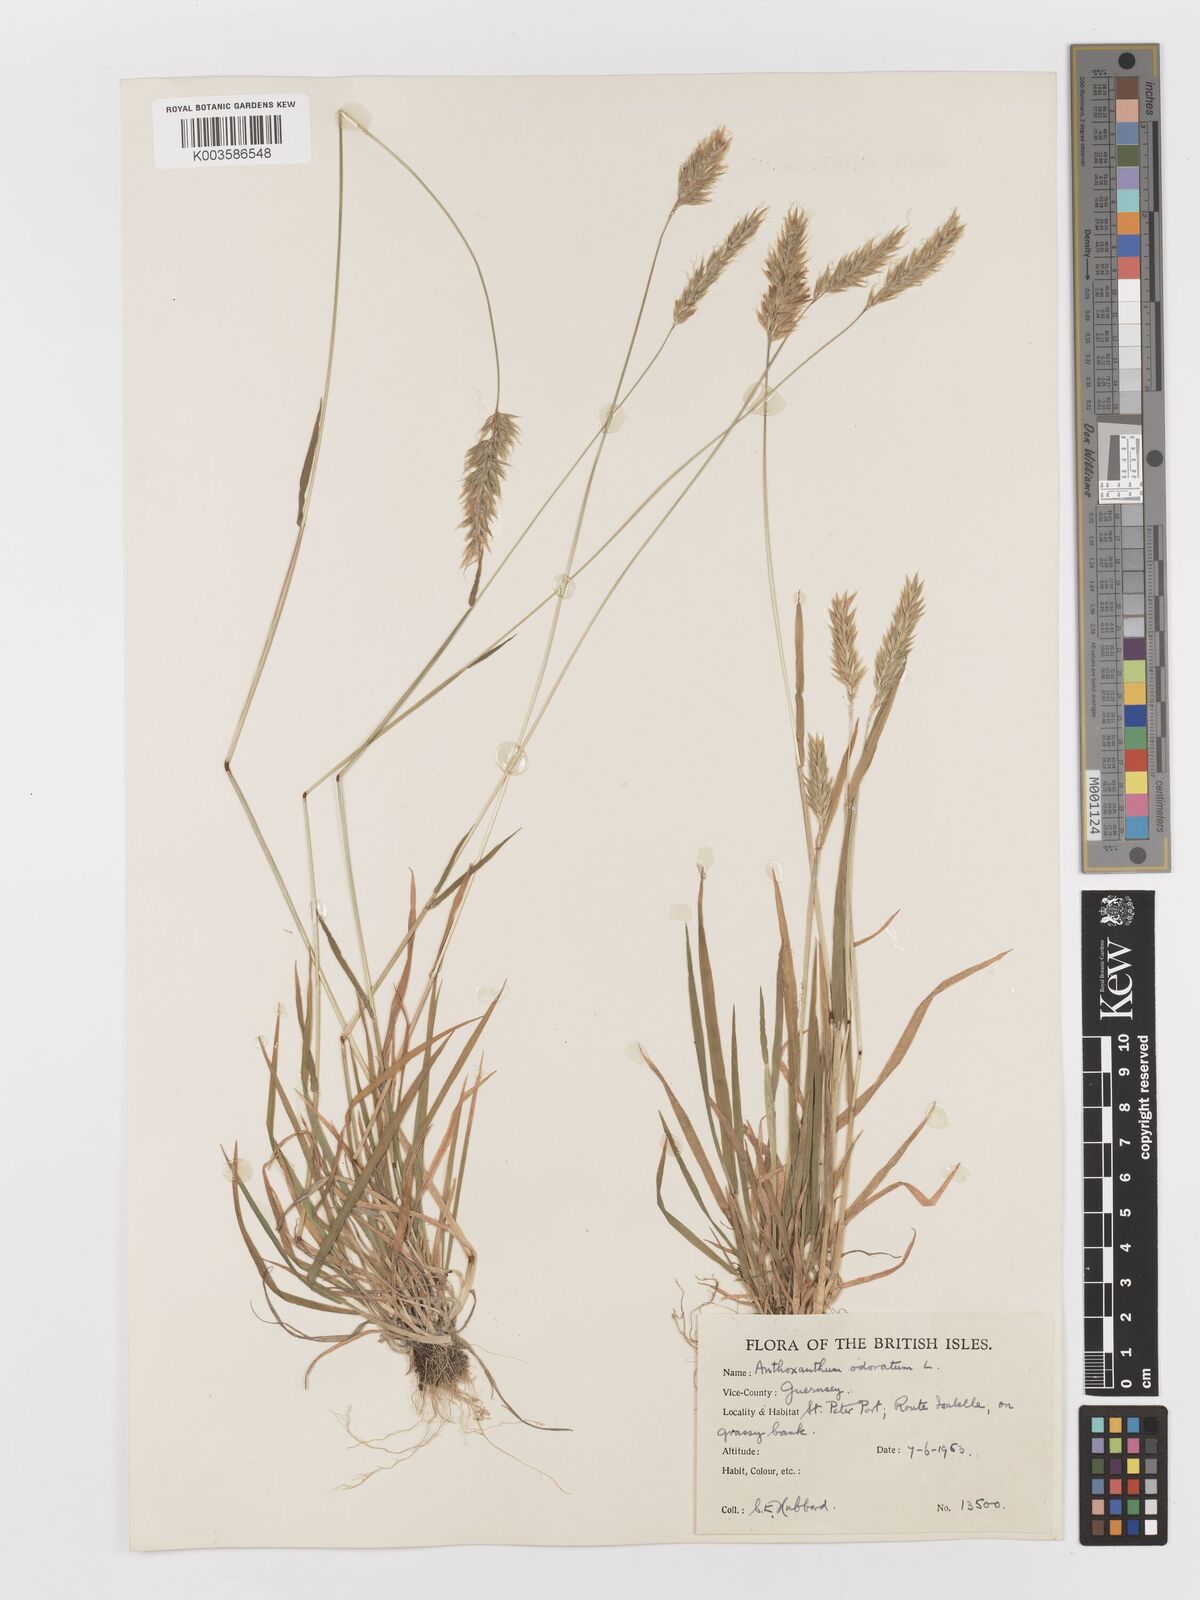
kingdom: Plantae
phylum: Tracheophyta
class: Liliopsida
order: Poales
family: Poaceae
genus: Anthoxanthum
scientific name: Anthoxanthum odoratum
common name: Sweet vernalgrass
